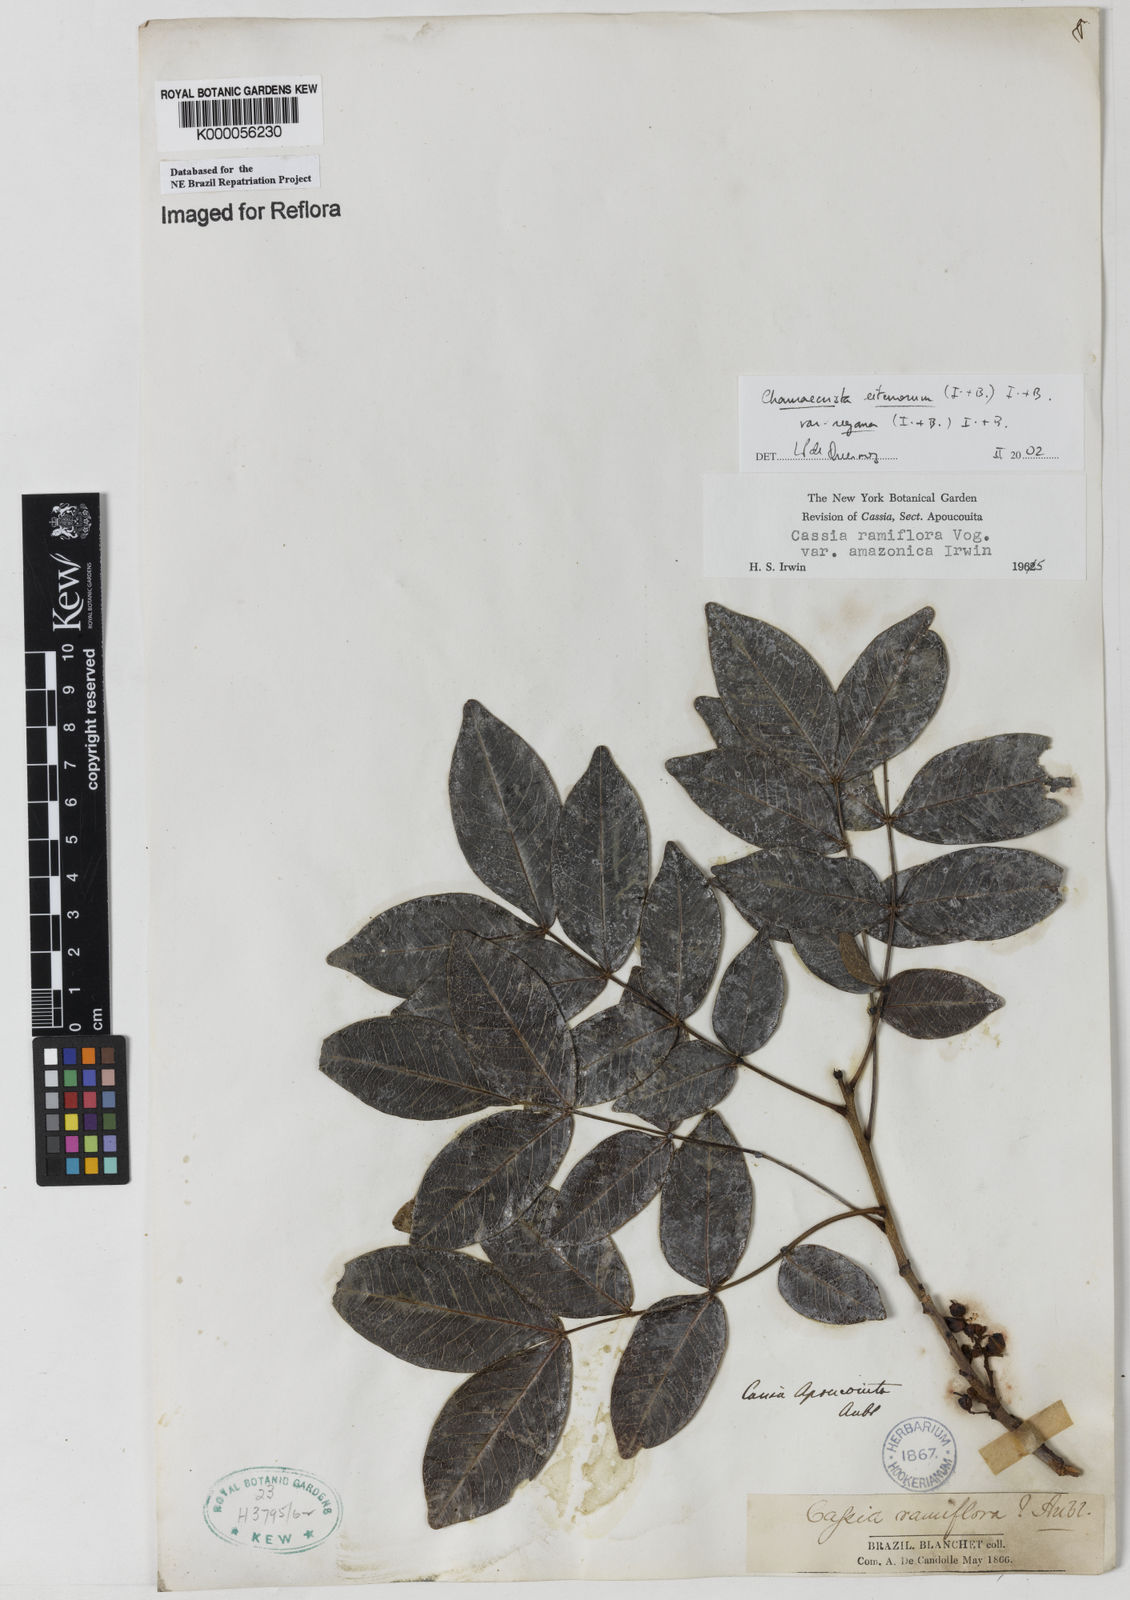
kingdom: Plantae
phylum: Tracheophyta
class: Magnoliopsida
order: Fabales
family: Fabaceae
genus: Chamaecrista
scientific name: Chamaecrista eitenorum
